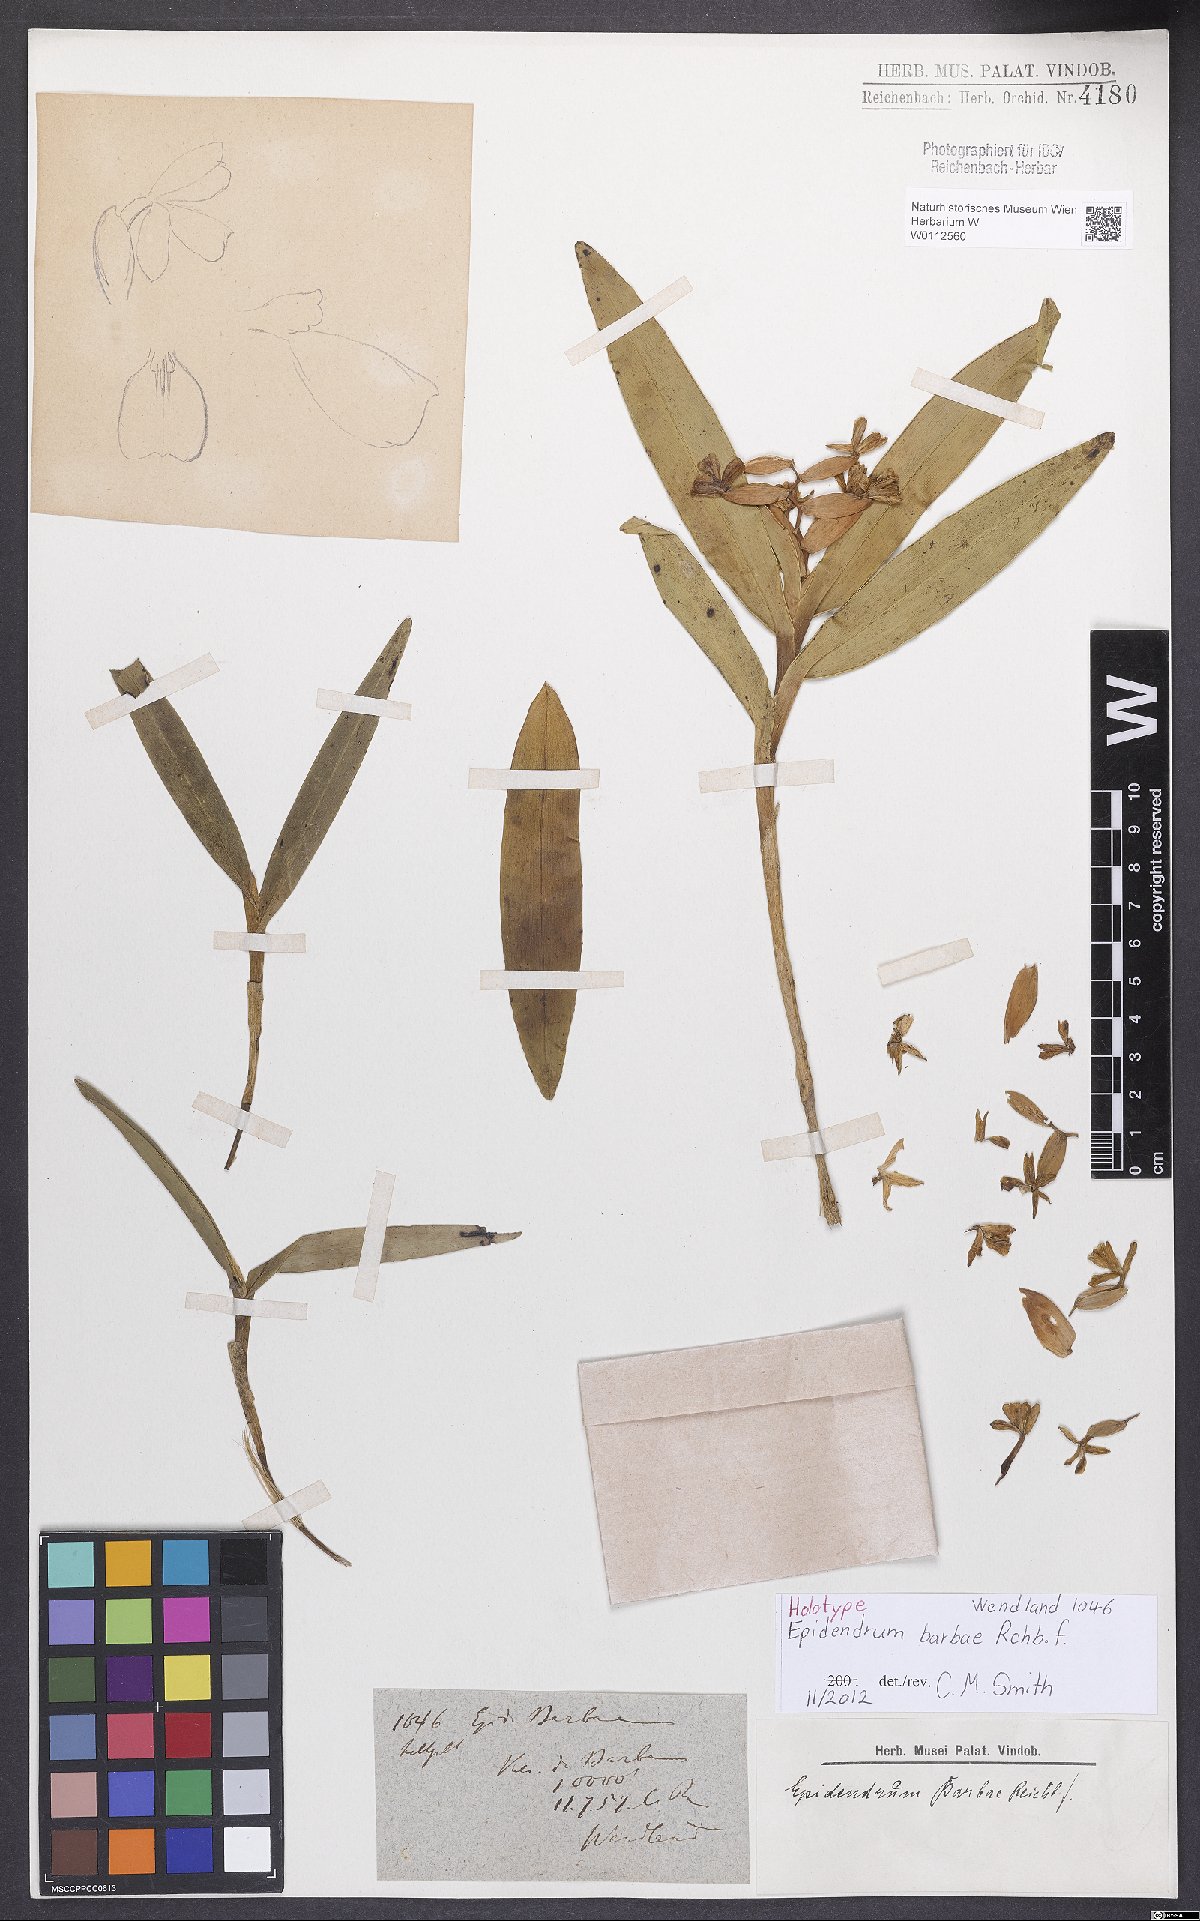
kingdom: Plantae
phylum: Tracheophyta
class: Liliopsida
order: Asparagales
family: Orchidaceae
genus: Epidendrum
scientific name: Epidendrum barbae
